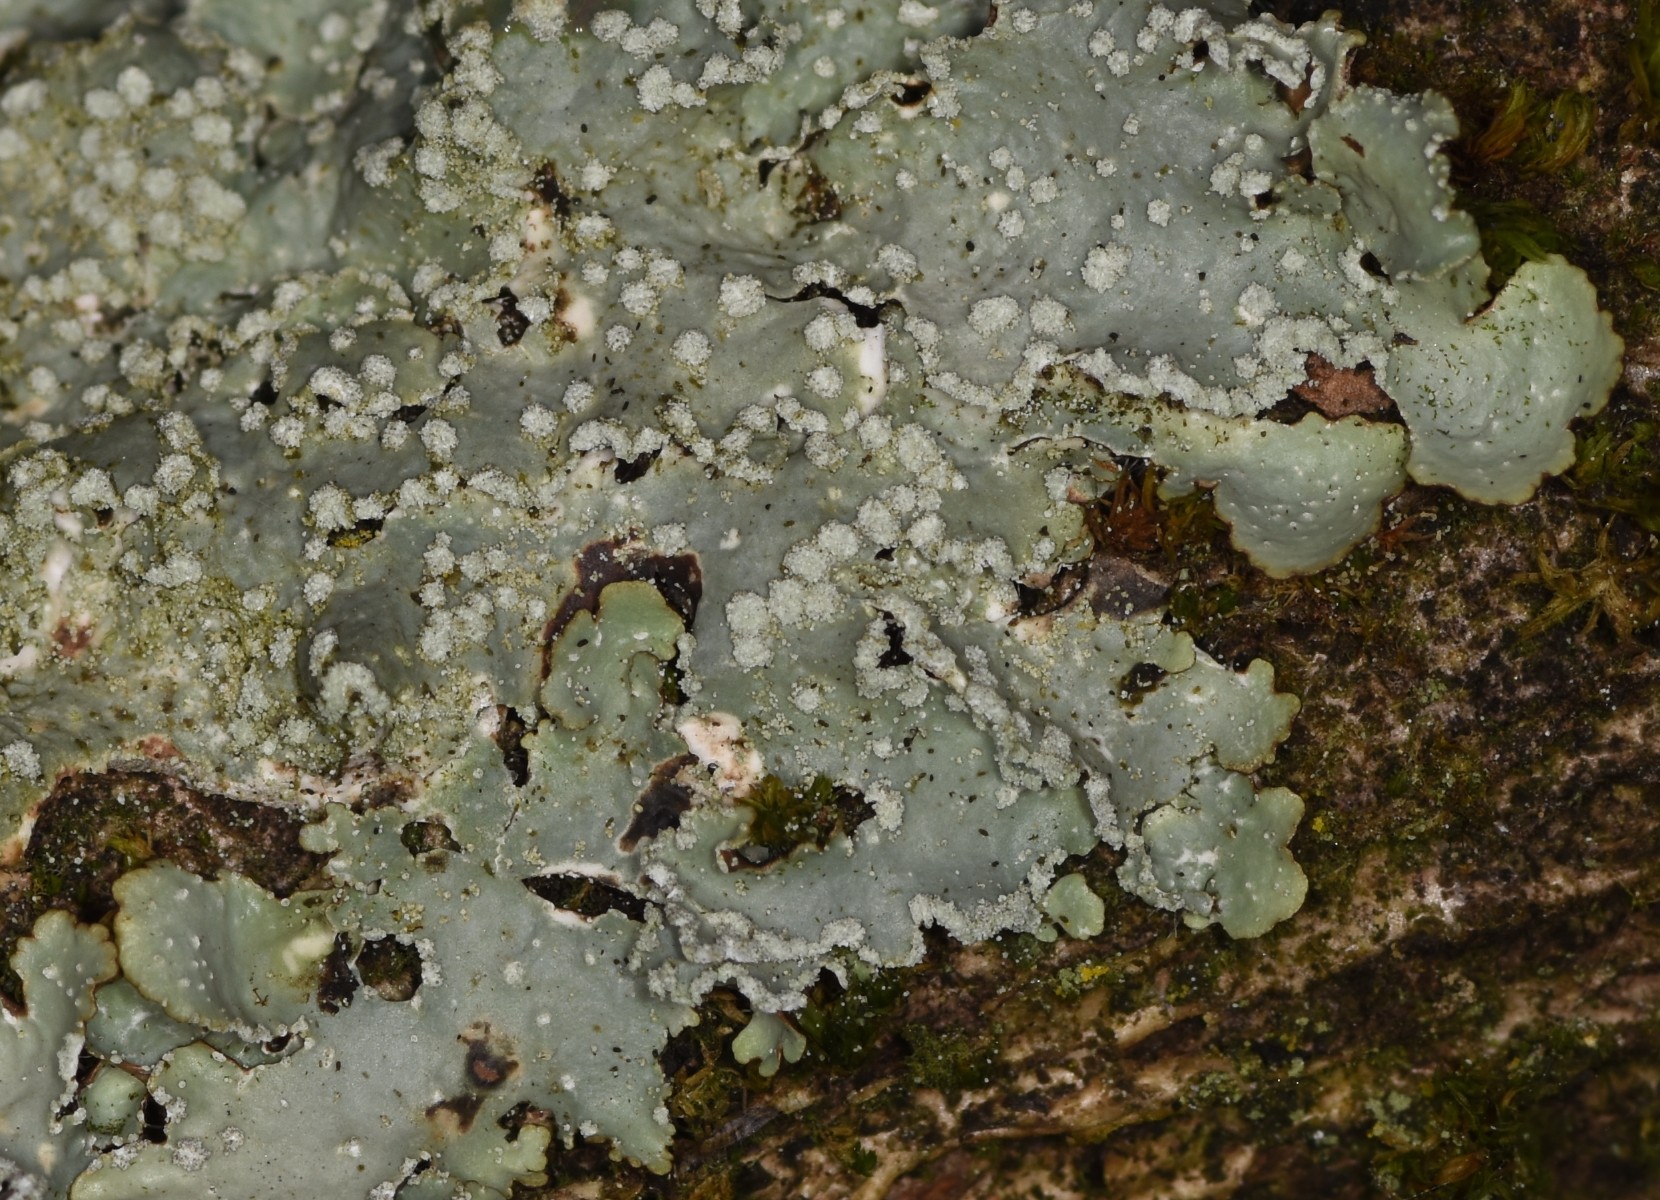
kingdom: Fungi
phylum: Ascomycota
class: Lecanoromycetes
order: Lecanorales
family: Parmeliaceae
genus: Punctelia
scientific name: Punctelia subrudecta
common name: punkt-skållav
